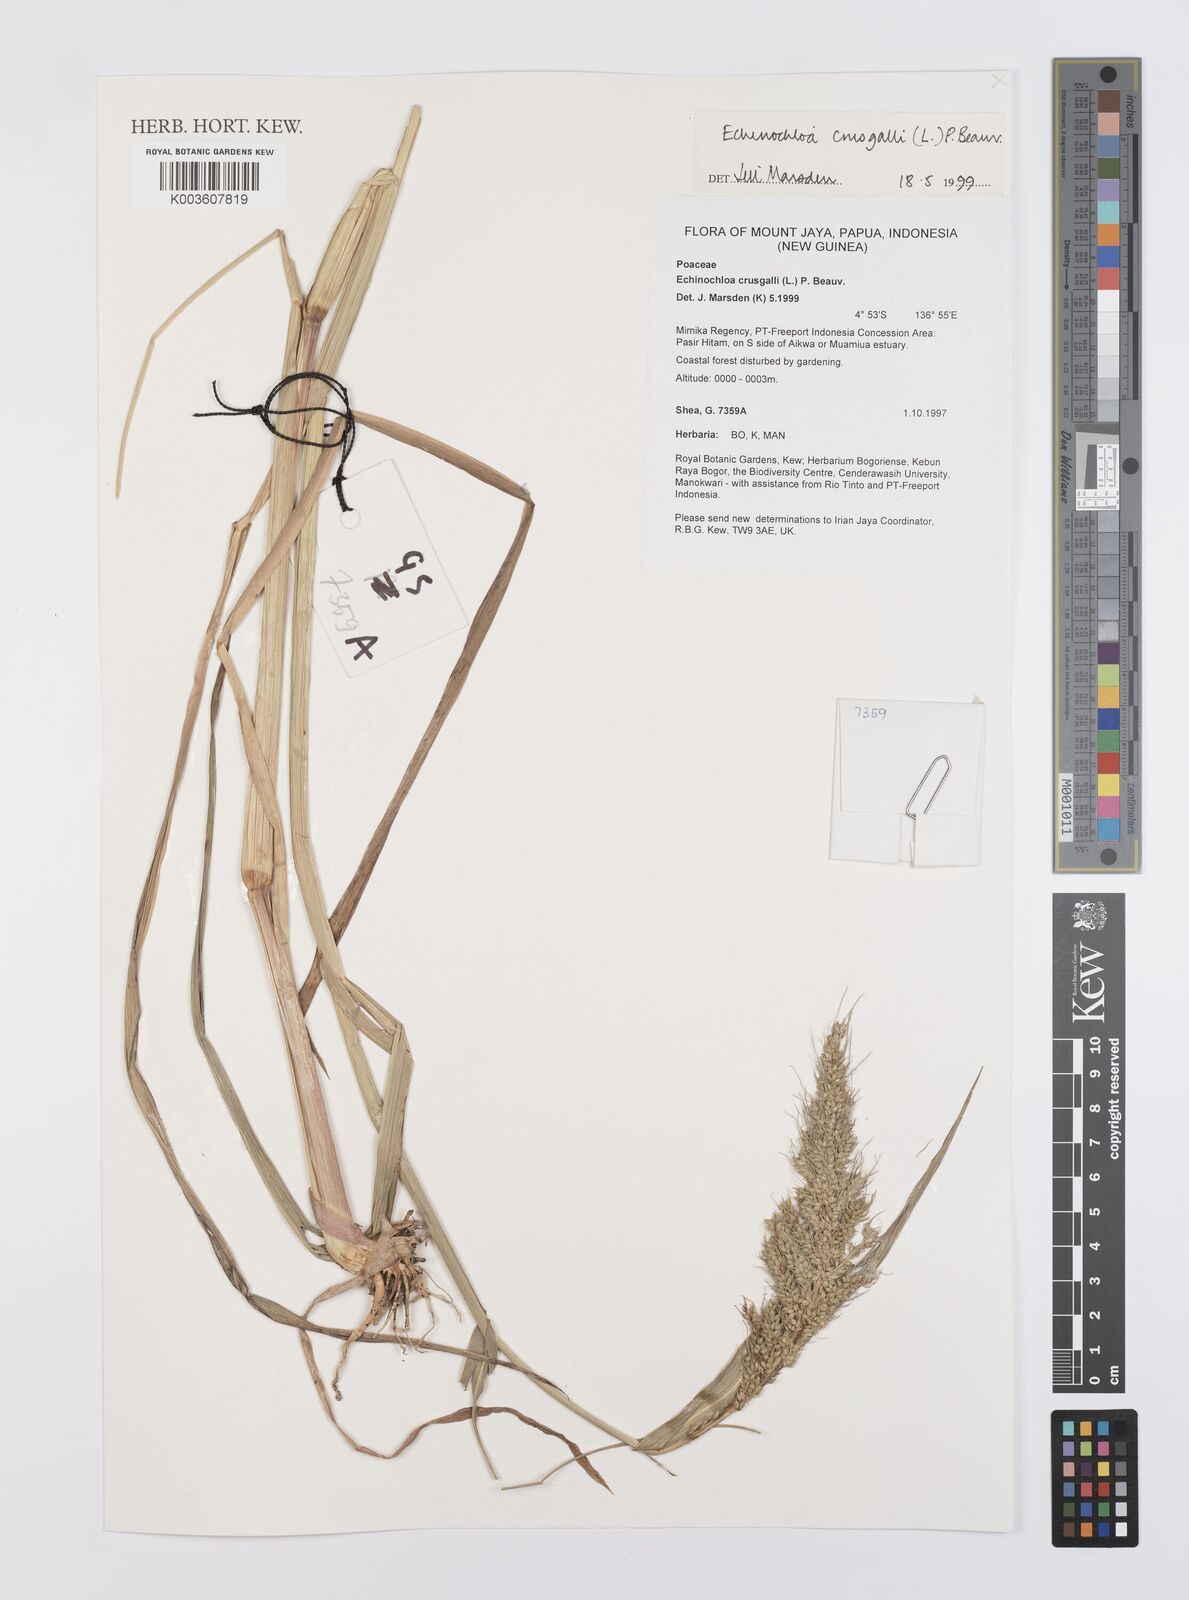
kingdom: Plantae
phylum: Tracheophyta
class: Liliopsida
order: Poales
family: Poaceae
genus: Echinochloa
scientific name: Echinochloa crus-galli
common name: Cockspur
